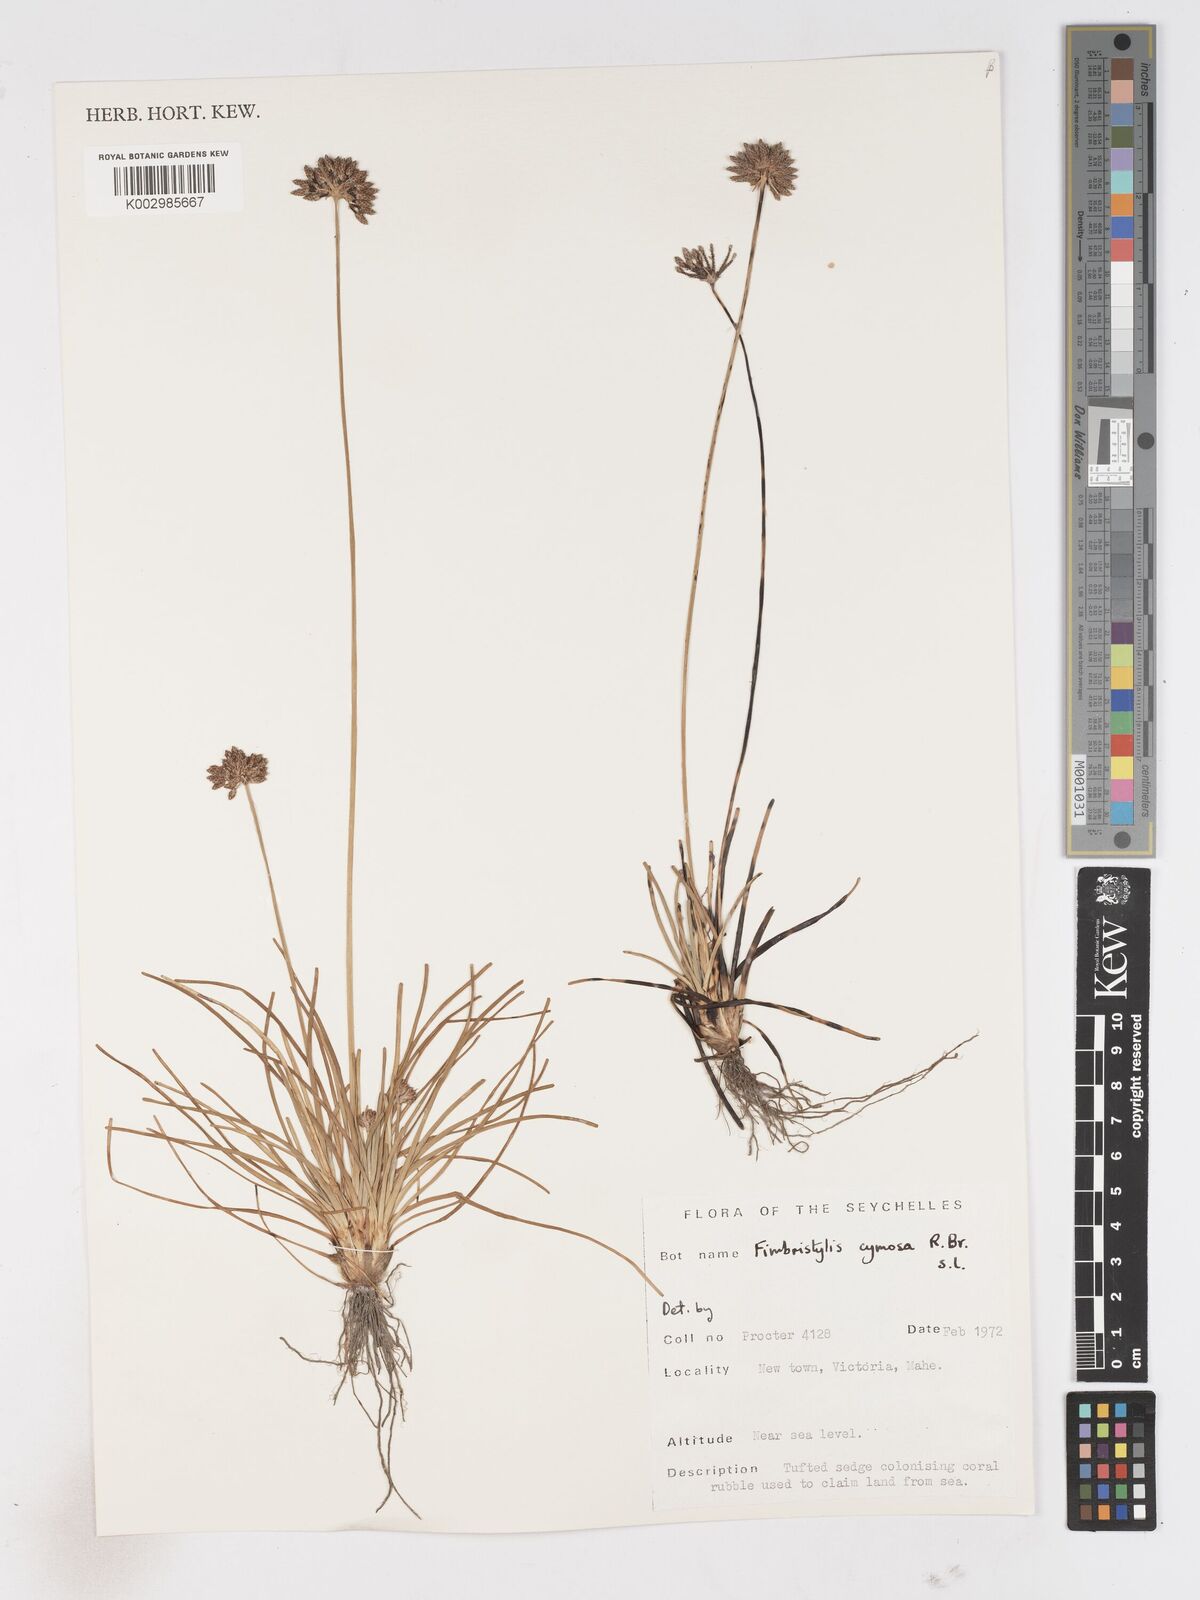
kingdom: Plantae
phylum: Tracheophyta
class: Liliopsida
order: Poales
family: Cyperaceae
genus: Fimbristylis
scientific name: Fimbristylis cymosa
